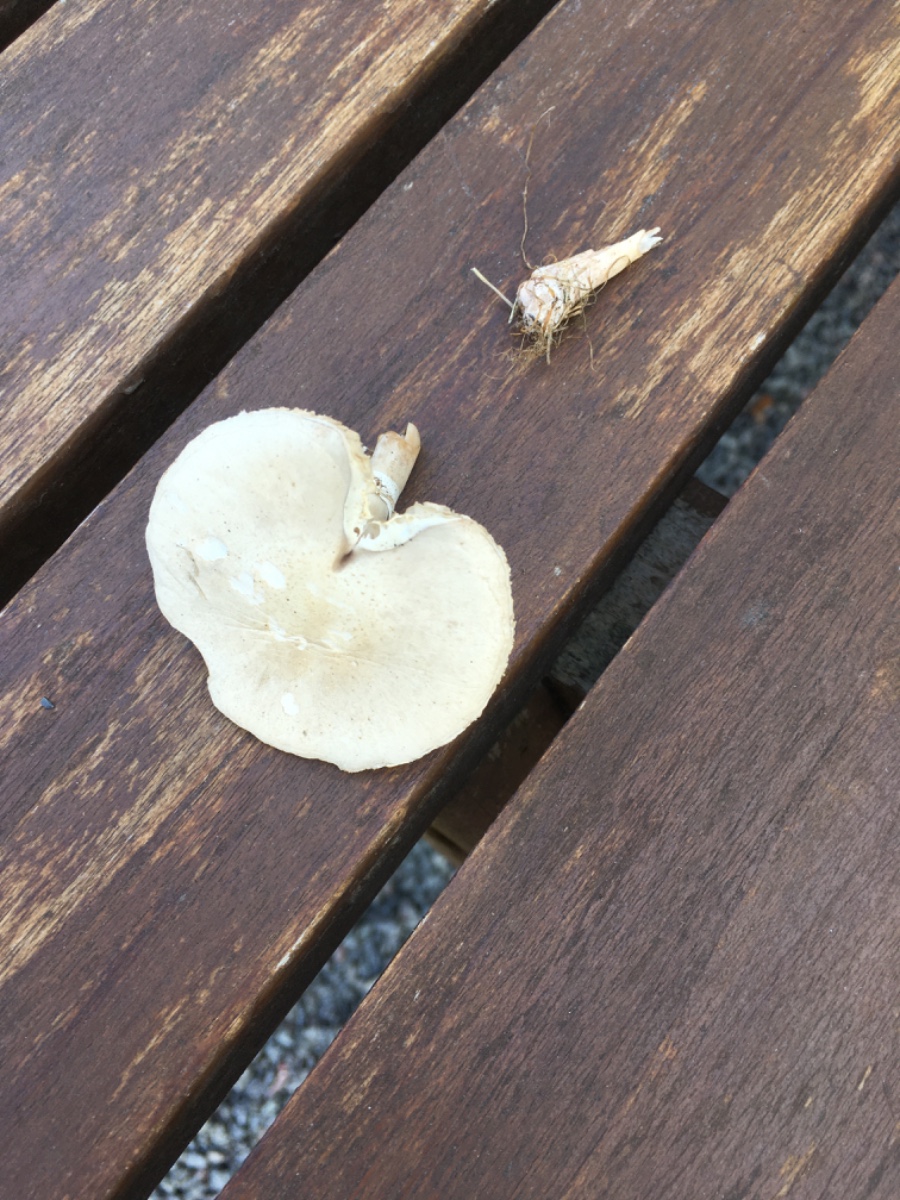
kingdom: Fungi
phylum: Basidiomycota
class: Agaricomycetes
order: Agaricales
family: Agaricaceae
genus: Leucoagaricus
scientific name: Leucoagaricus leucothites
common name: rosabladet silkehat
